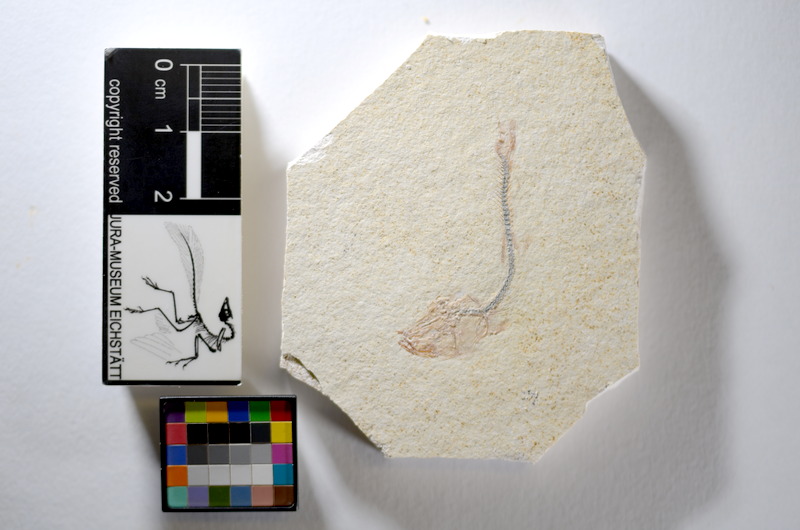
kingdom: Animalia
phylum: Chordata
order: Salmoniformes
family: Orthogonikleithridae
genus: Orthogonikleithrus
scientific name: Orthogonikleithrus hoelli
